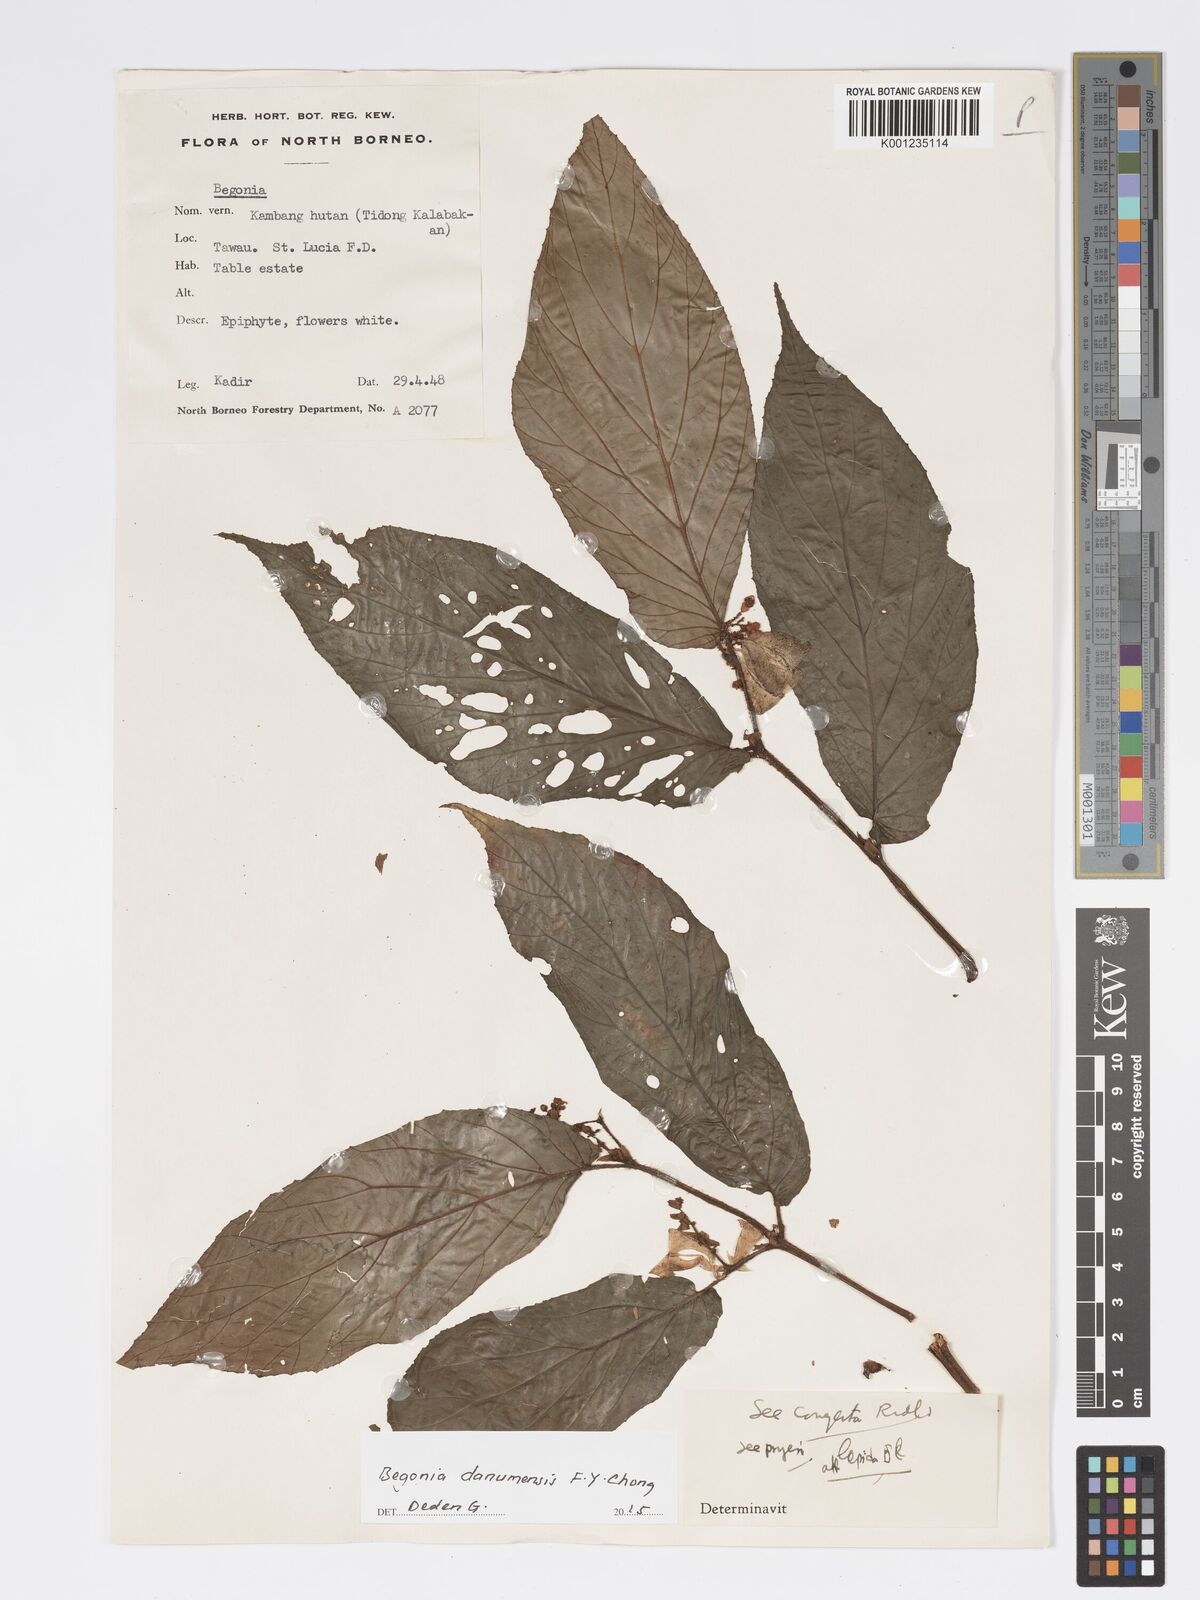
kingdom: Plantae
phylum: Tracheophyta
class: Magnoliopsida
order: Cucurbitales
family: Begoniaceae
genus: Begonia
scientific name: Begonia danumensis
